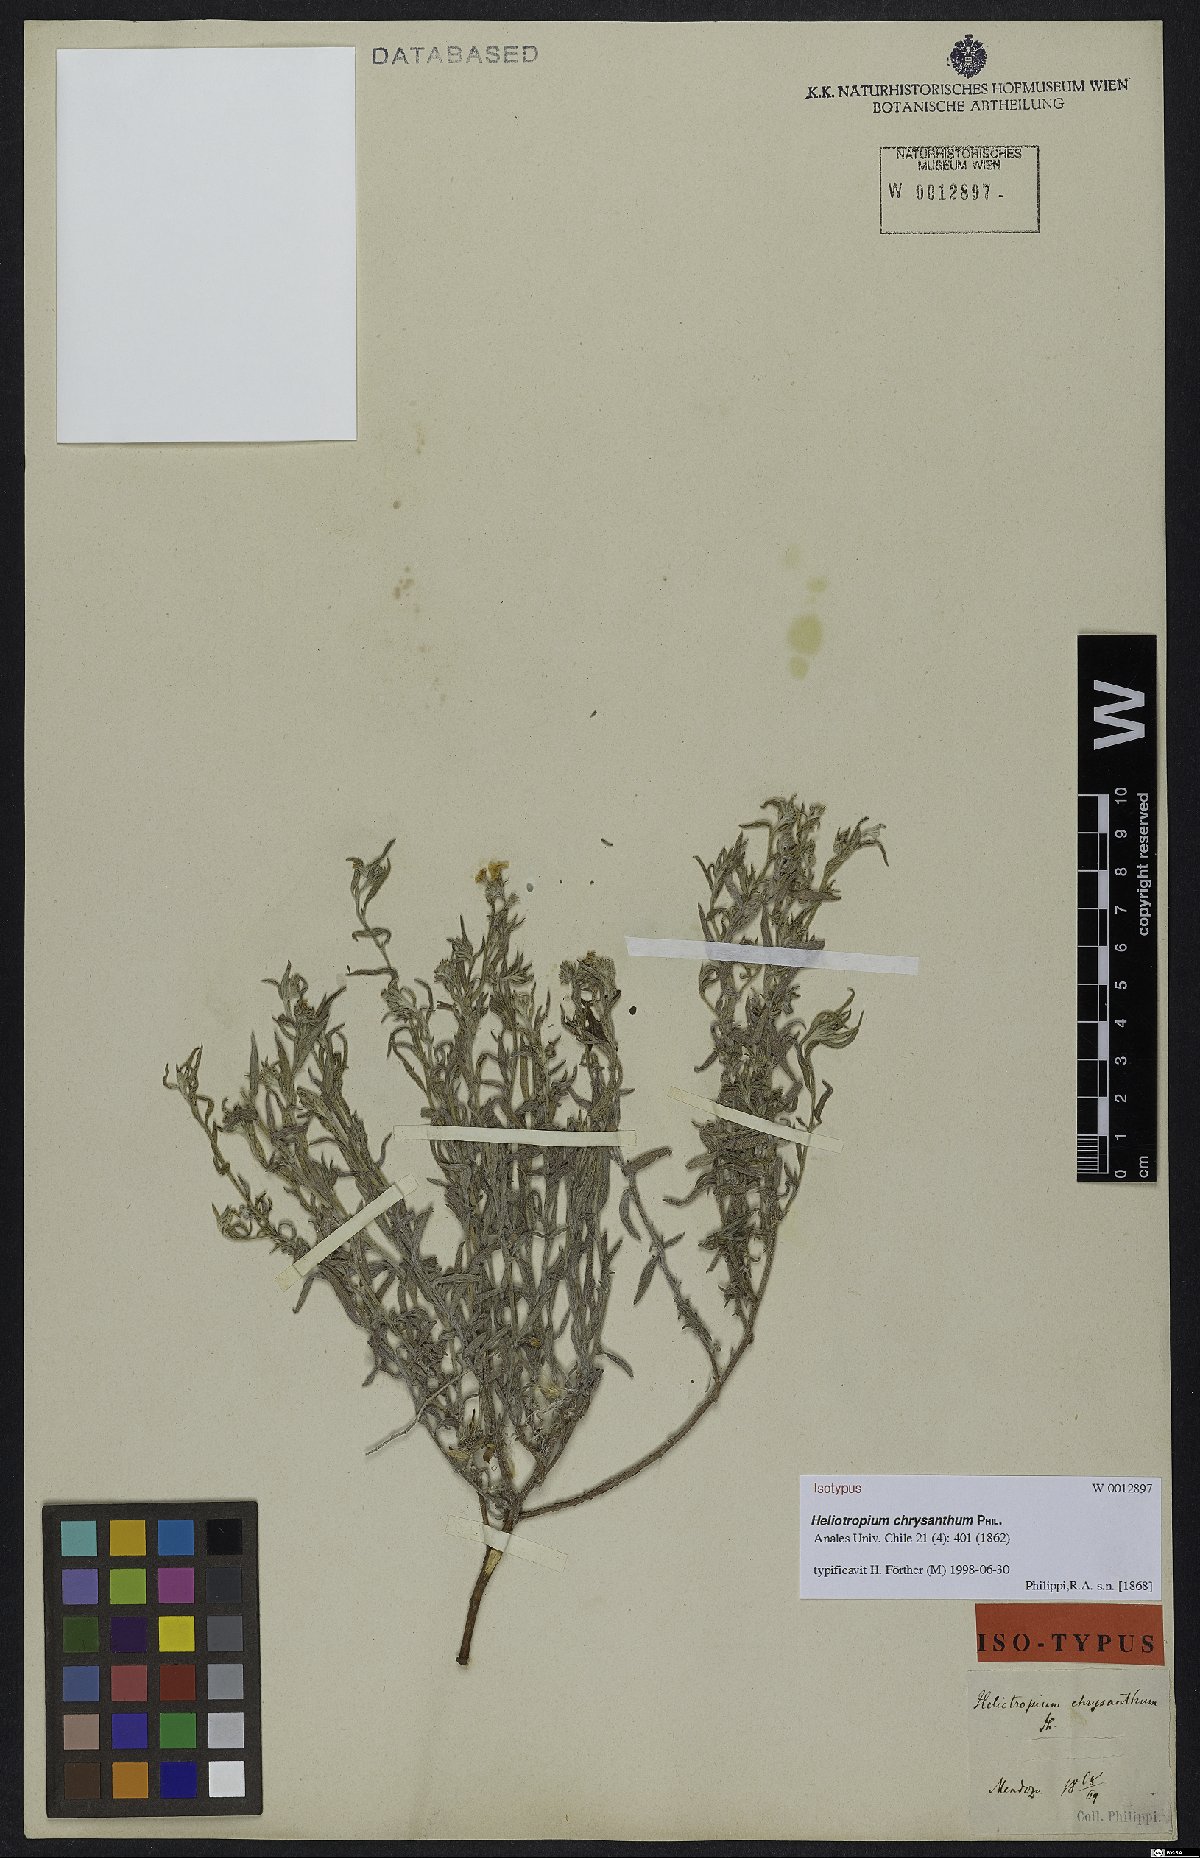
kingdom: Plantae
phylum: Tracheophyta
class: Magnoliopsida
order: Boraginales
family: Heliotropiaceae
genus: Euploca
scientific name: Euploca chrysantha
